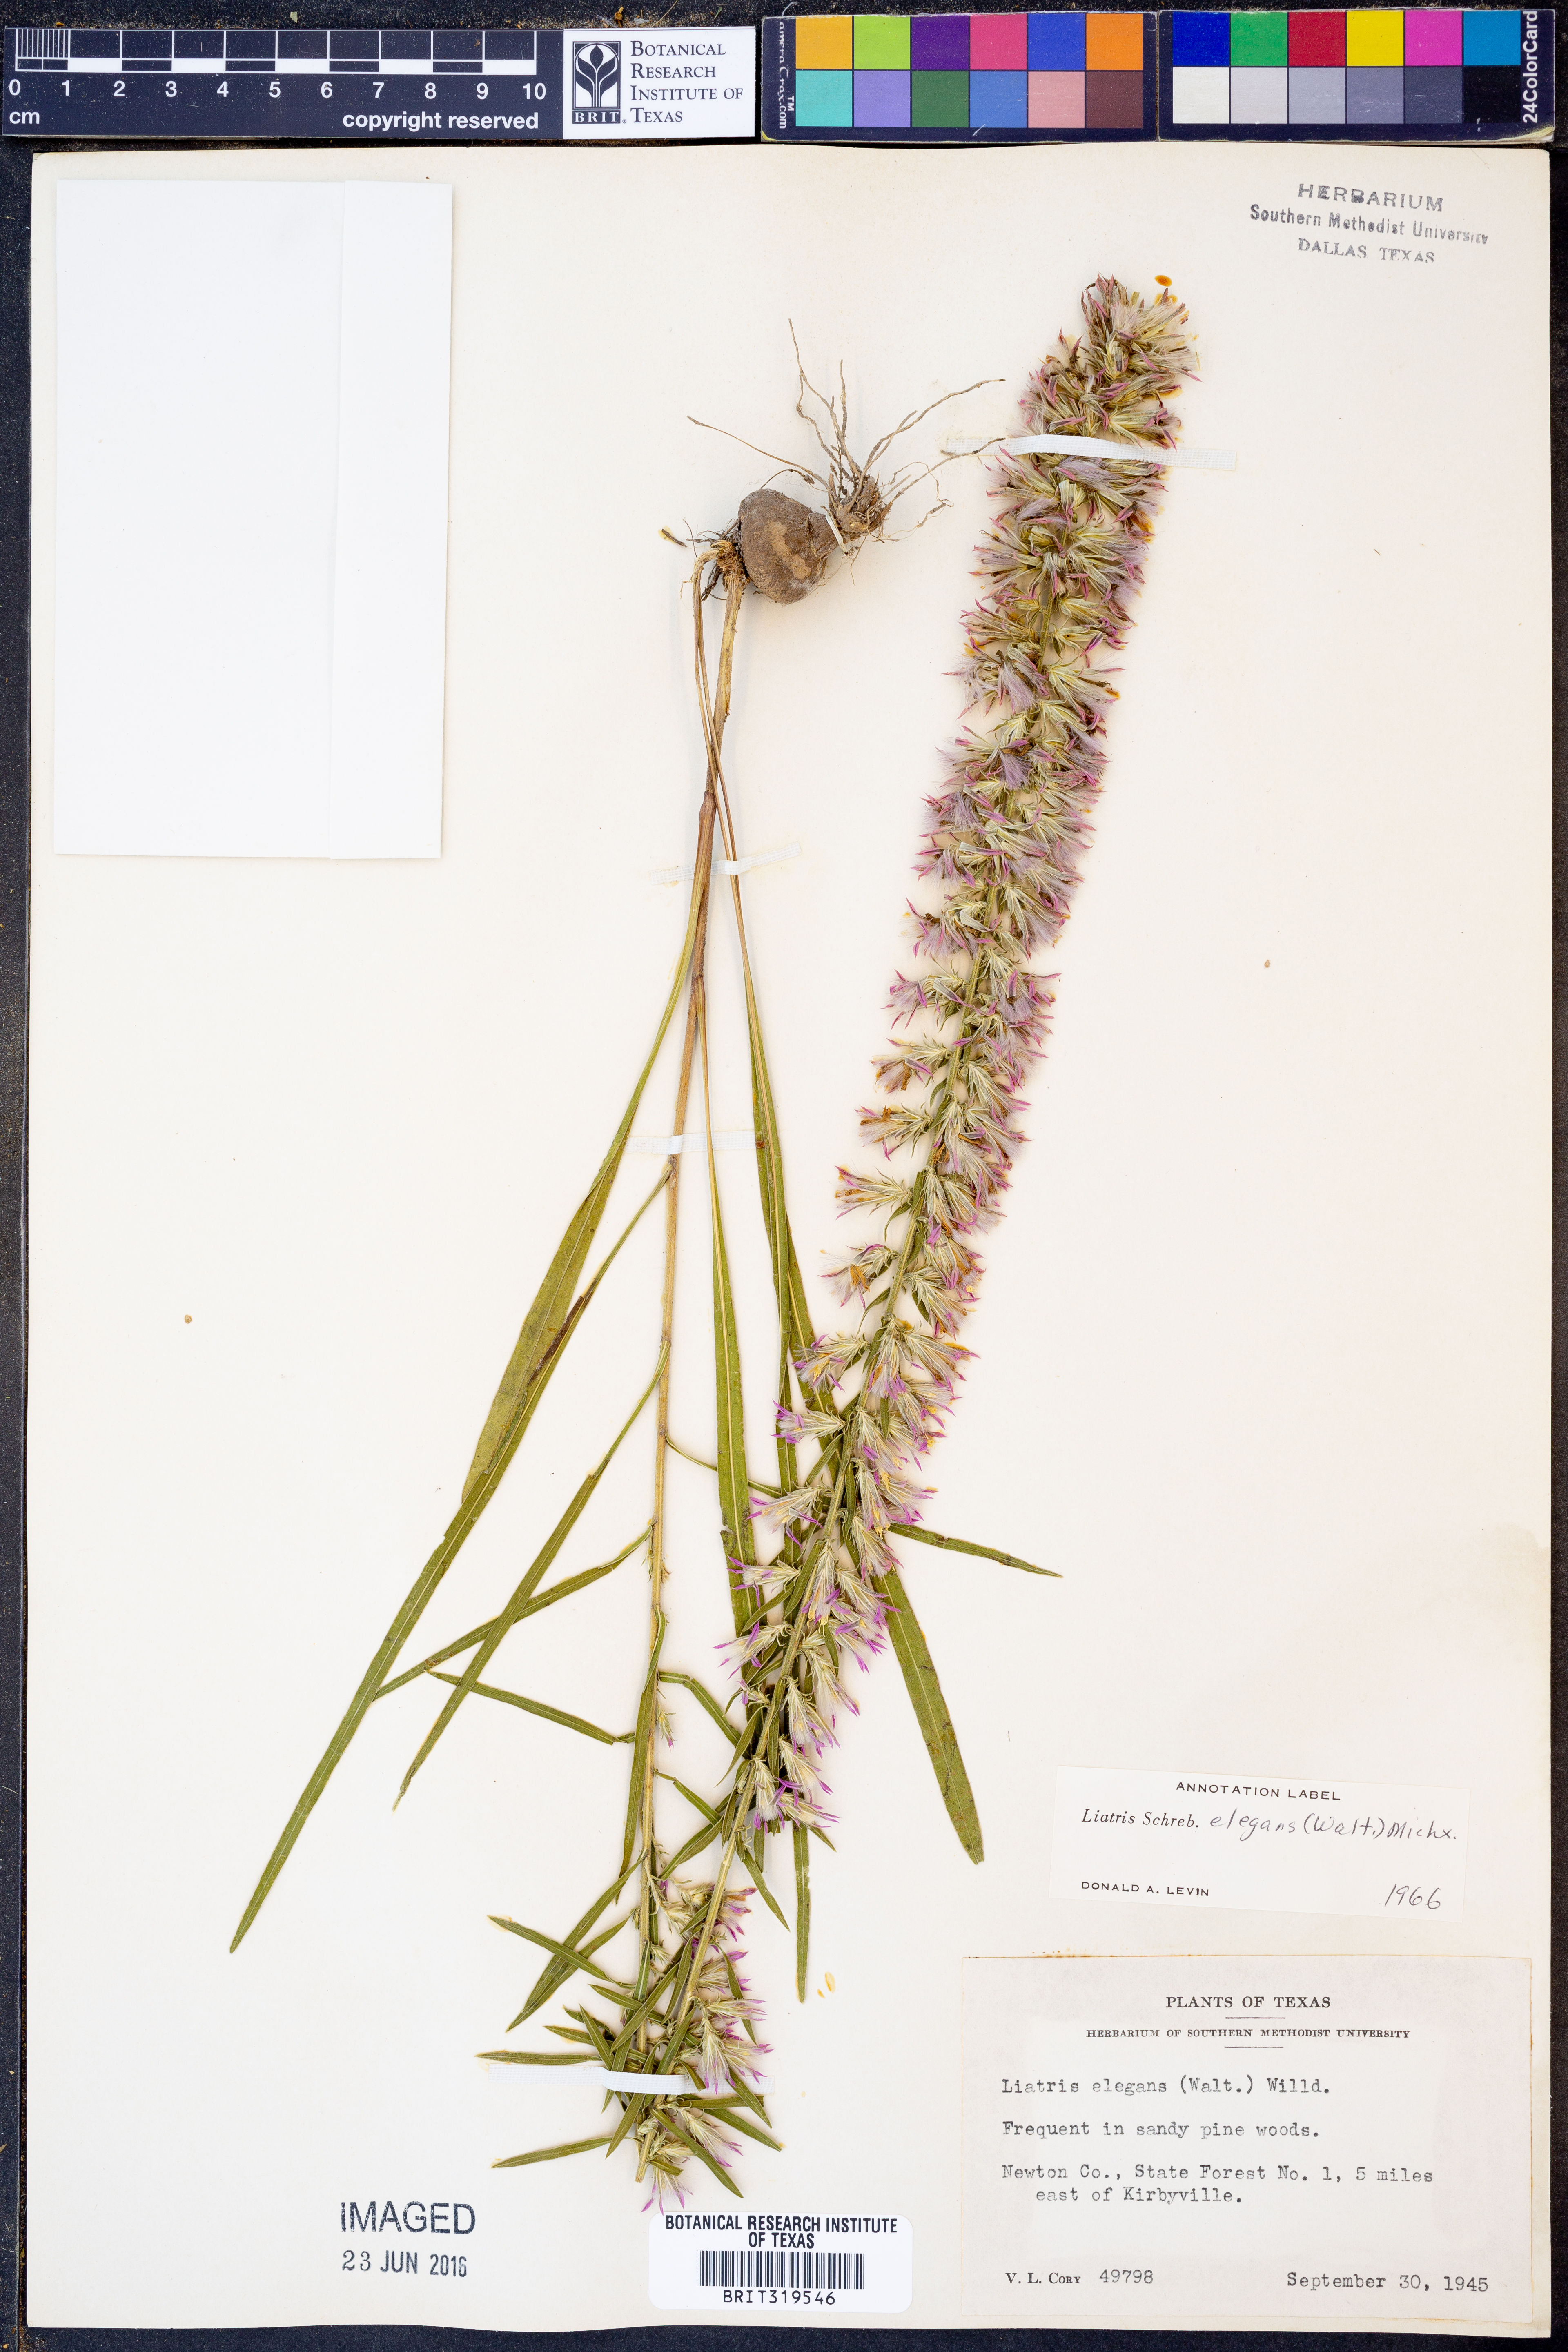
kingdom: Plantae
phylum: Tracheophyta
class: Magnoliopsida
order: Asterales
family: Asteraceae
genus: Liatris
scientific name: Liatris elegans
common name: Pinkscale gayfeather
